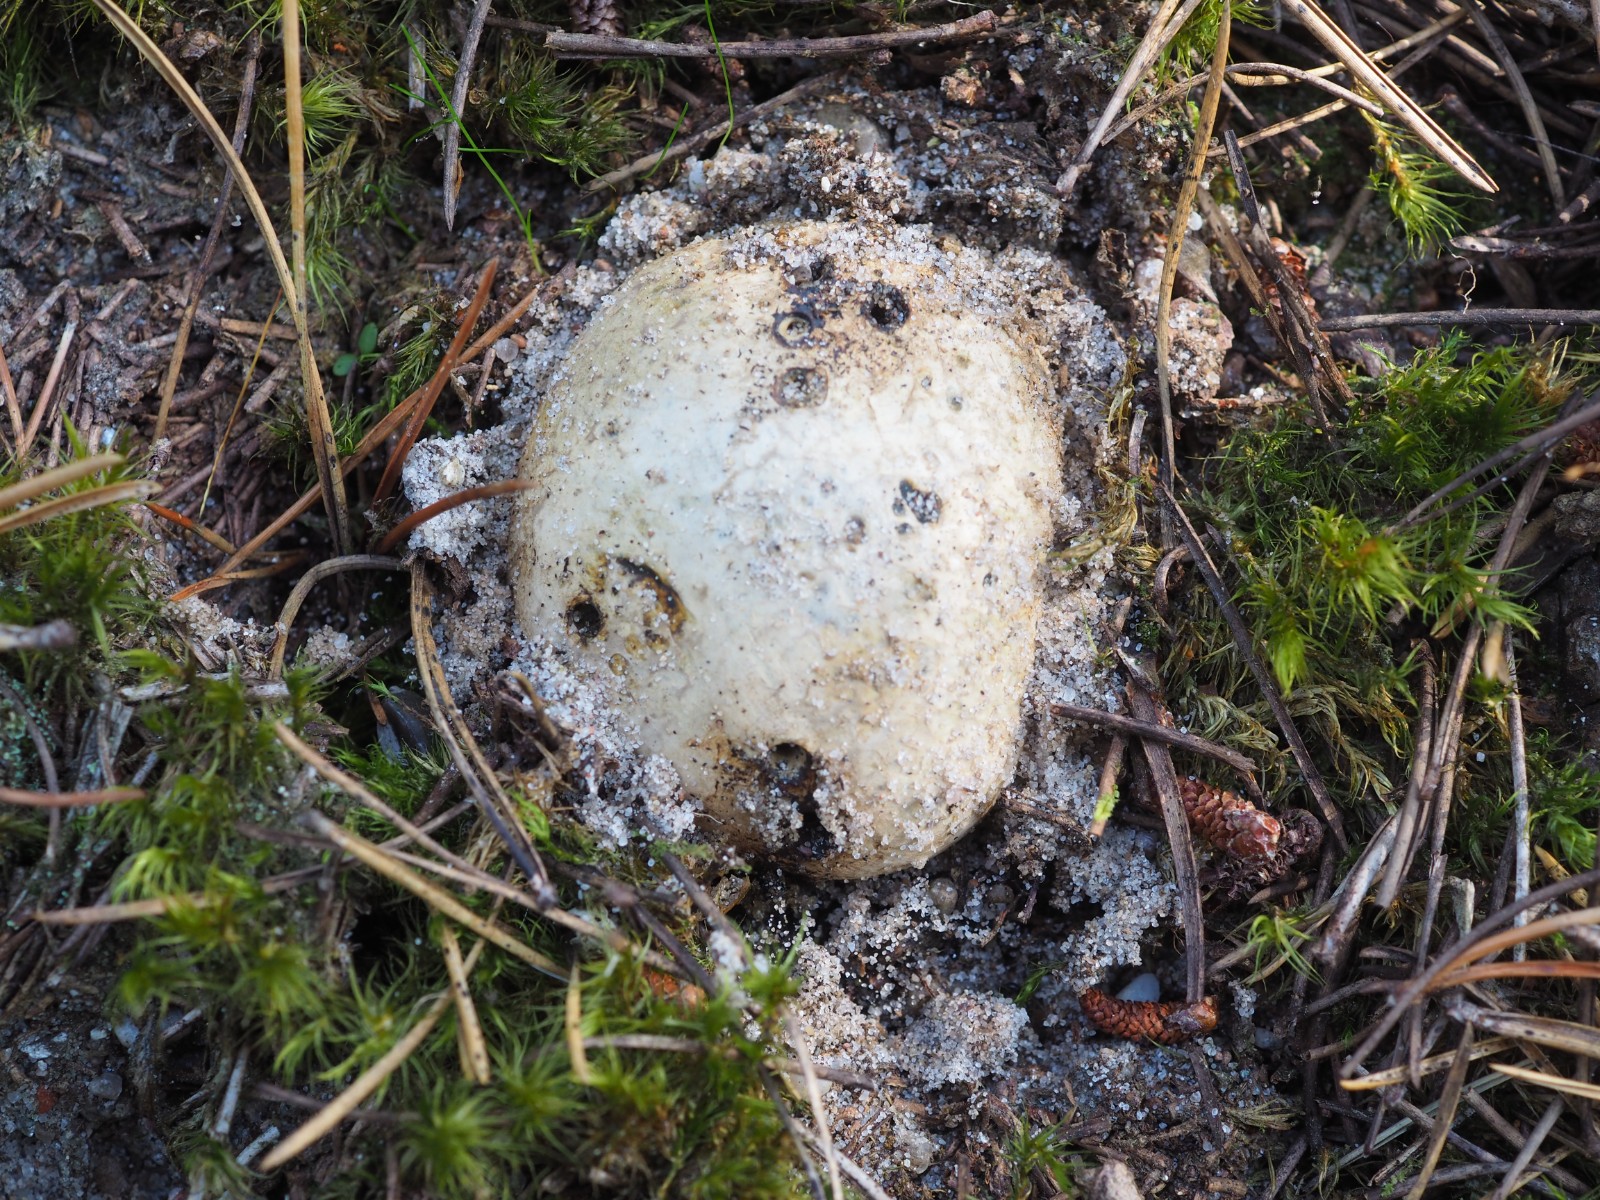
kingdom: Fungi
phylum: Basidiomycota
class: Agaricomycetes
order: Boletales
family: Sclerodermataceae
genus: Pisolithus
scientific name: Pisolithus capsulifer
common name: farvebold
